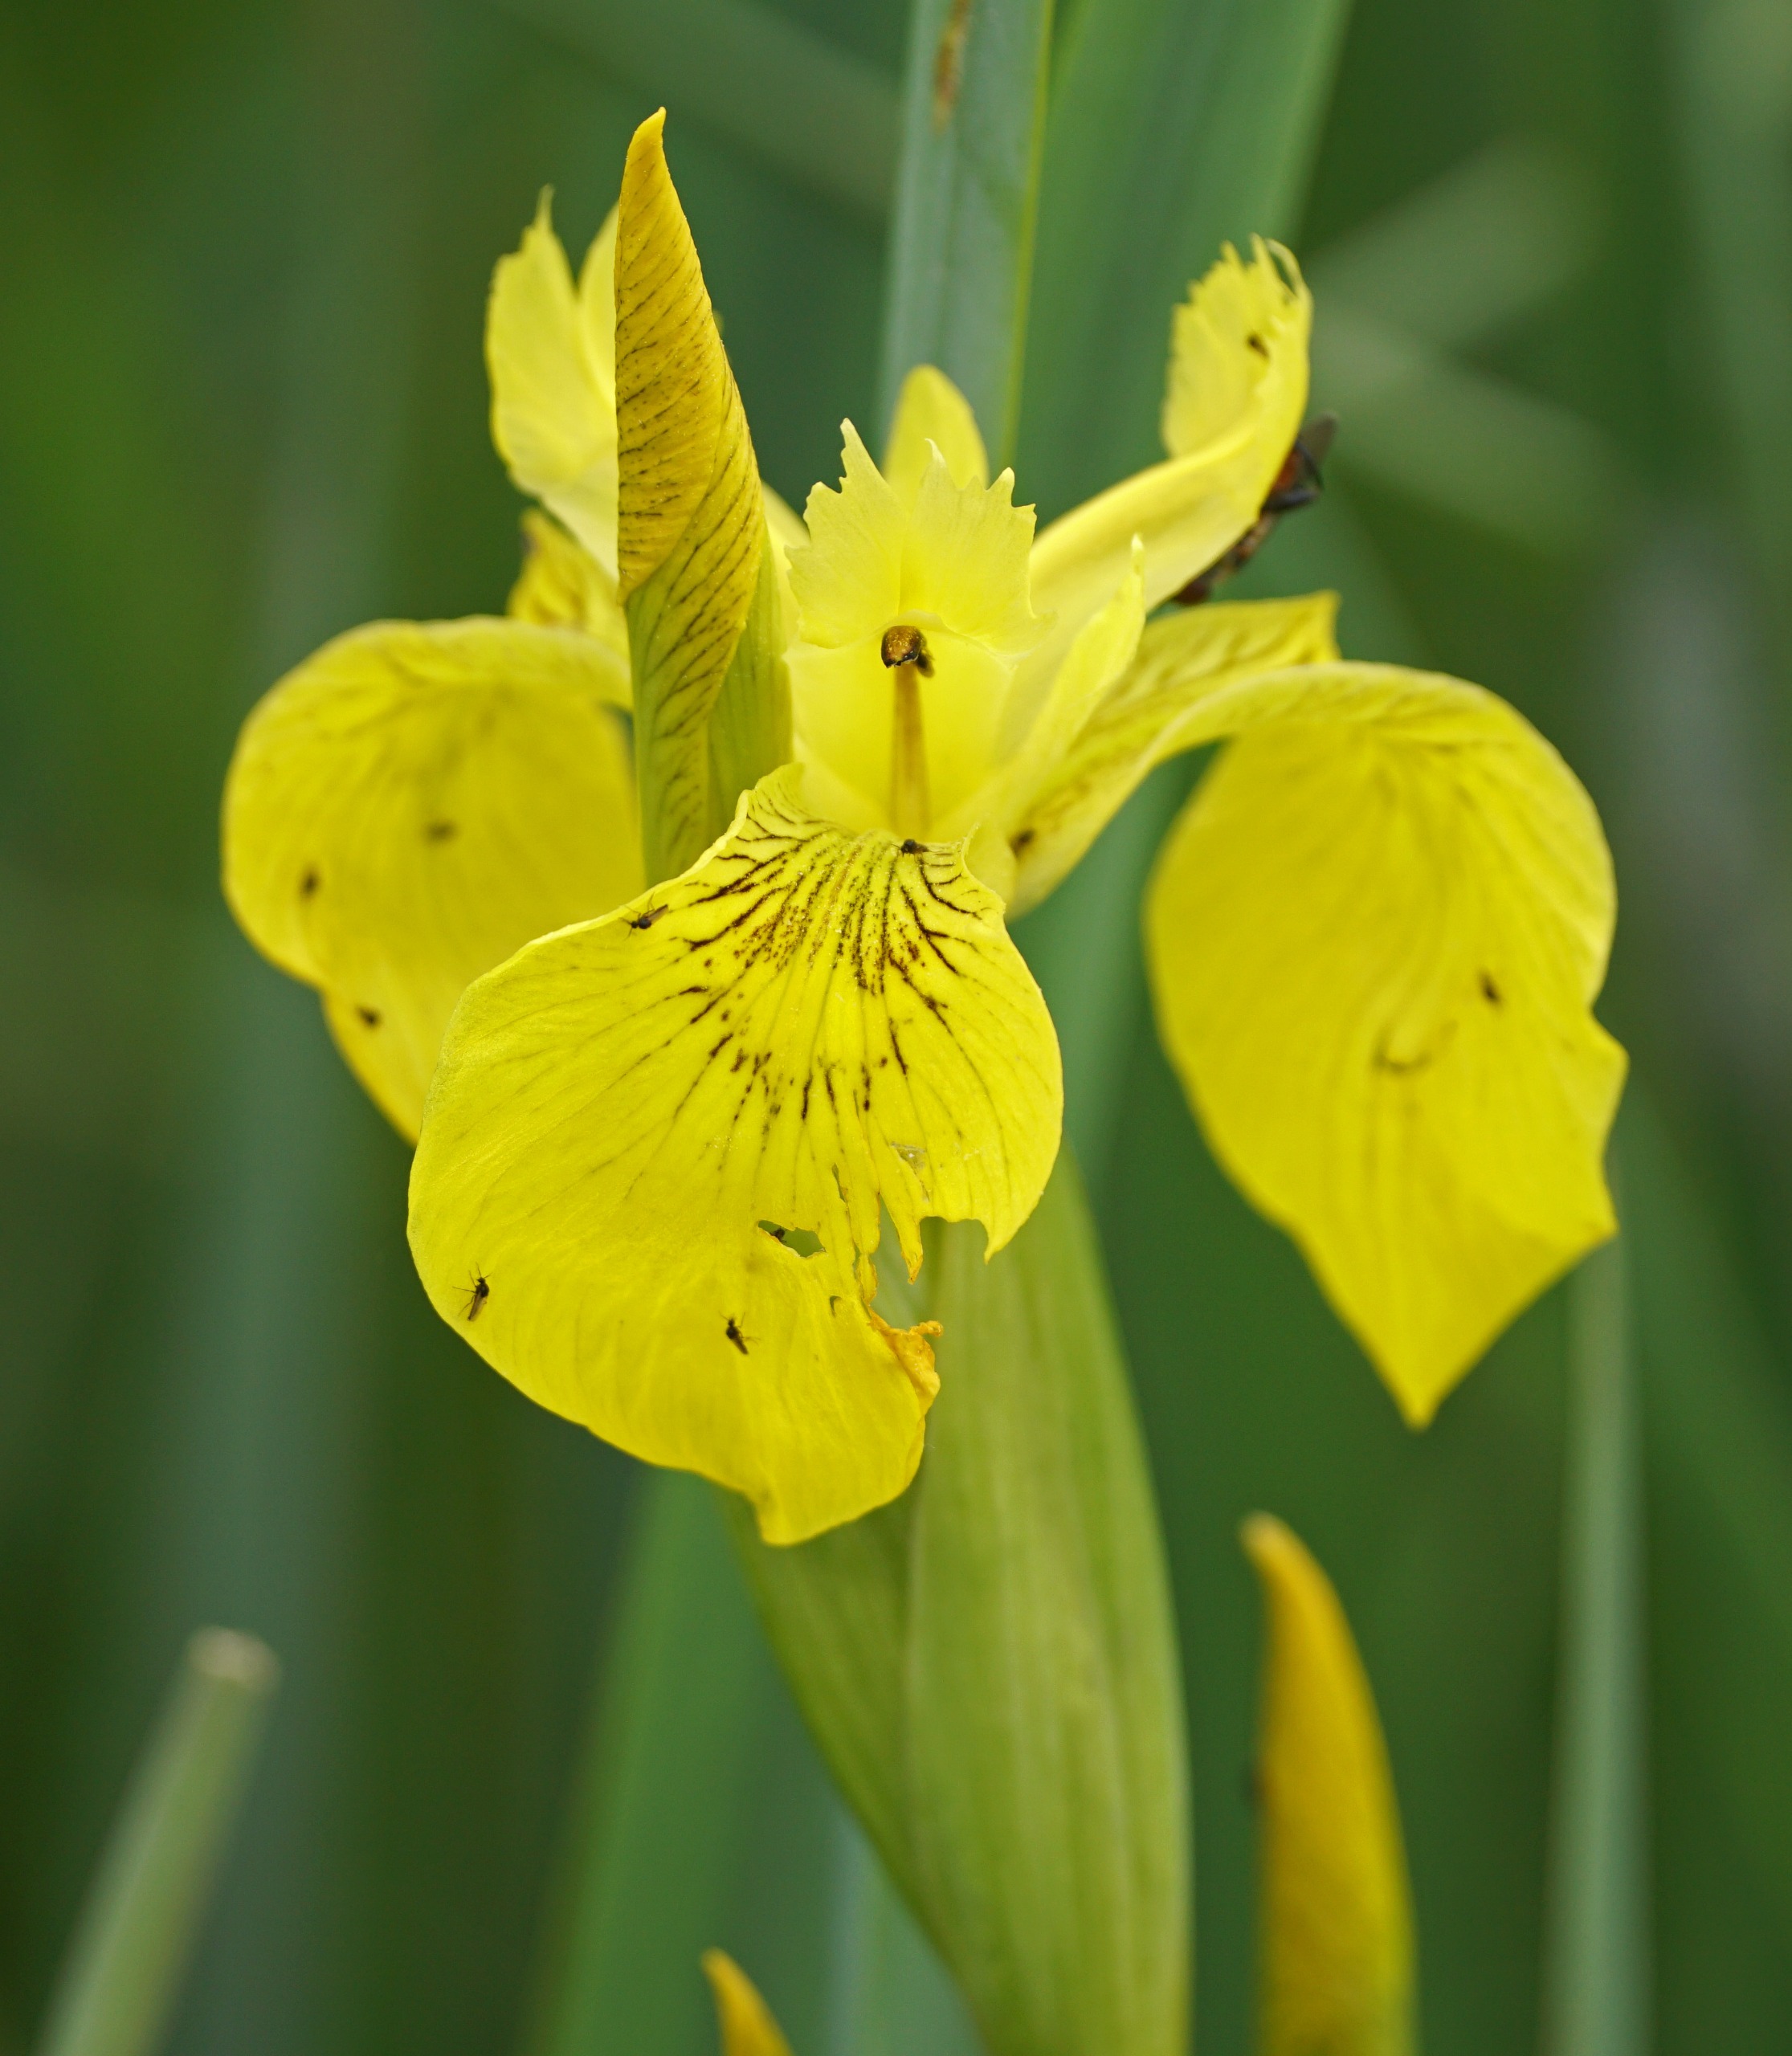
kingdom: Plantae
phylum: Tracheophyta
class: Liliopsida
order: Asparagales
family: Iridaceae
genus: Iris
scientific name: Iris pseudacorus
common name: Gul iris
